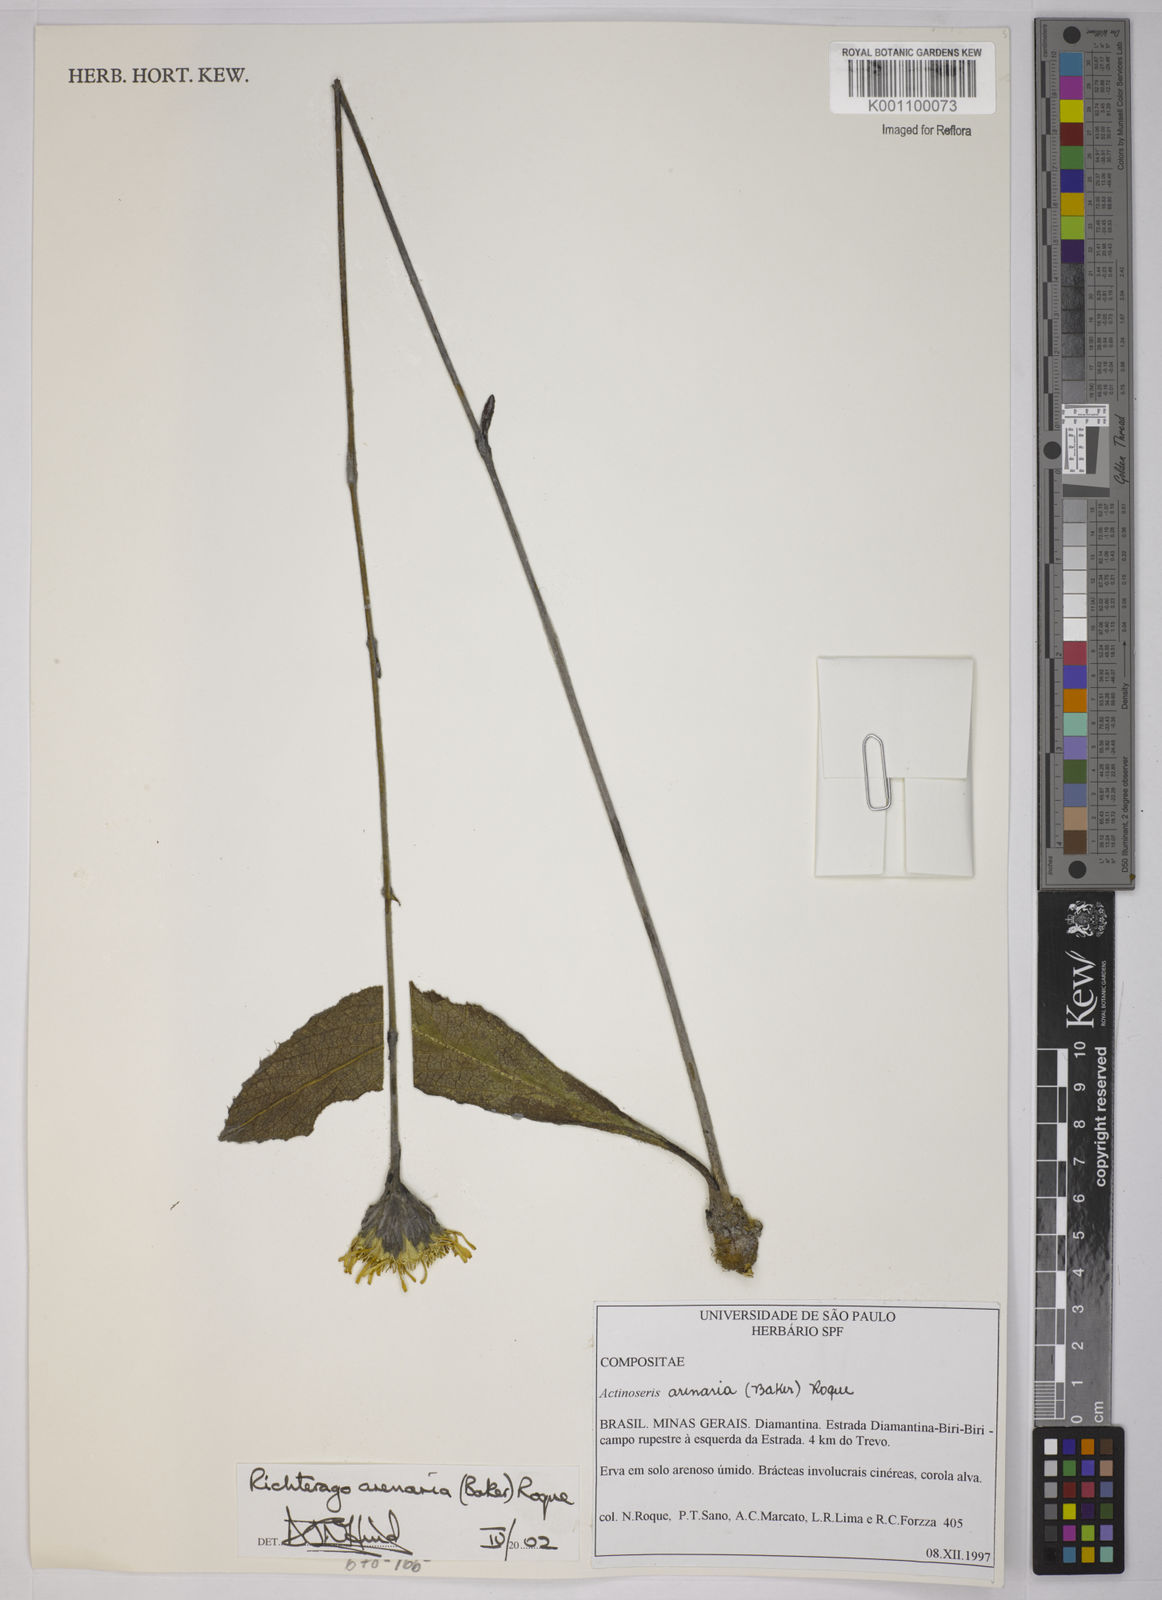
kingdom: Plantae
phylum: Tracheophyta
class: Magnoliopsida
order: Asterales
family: Asteraceae
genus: Richterago
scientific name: Richterago arenaria
